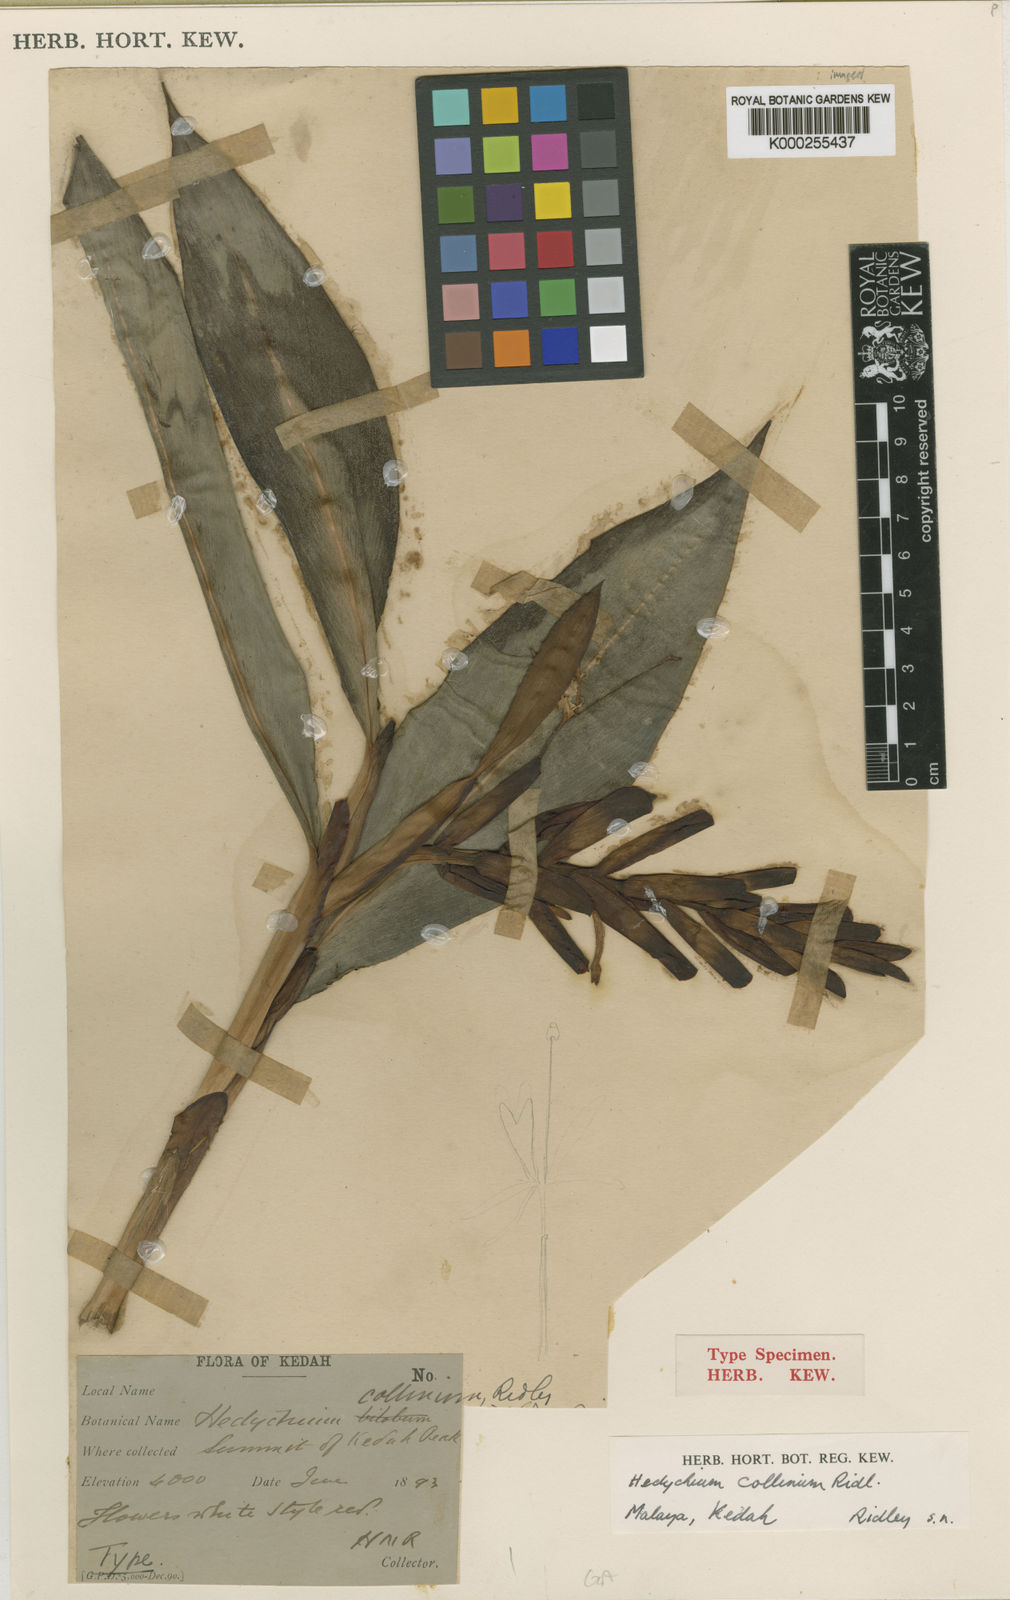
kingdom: Plantae
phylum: Tracheophyta
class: Liliopsida
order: Zingiberales
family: Zingiberaceae
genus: Hedychium
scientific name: Hedychium collinum
